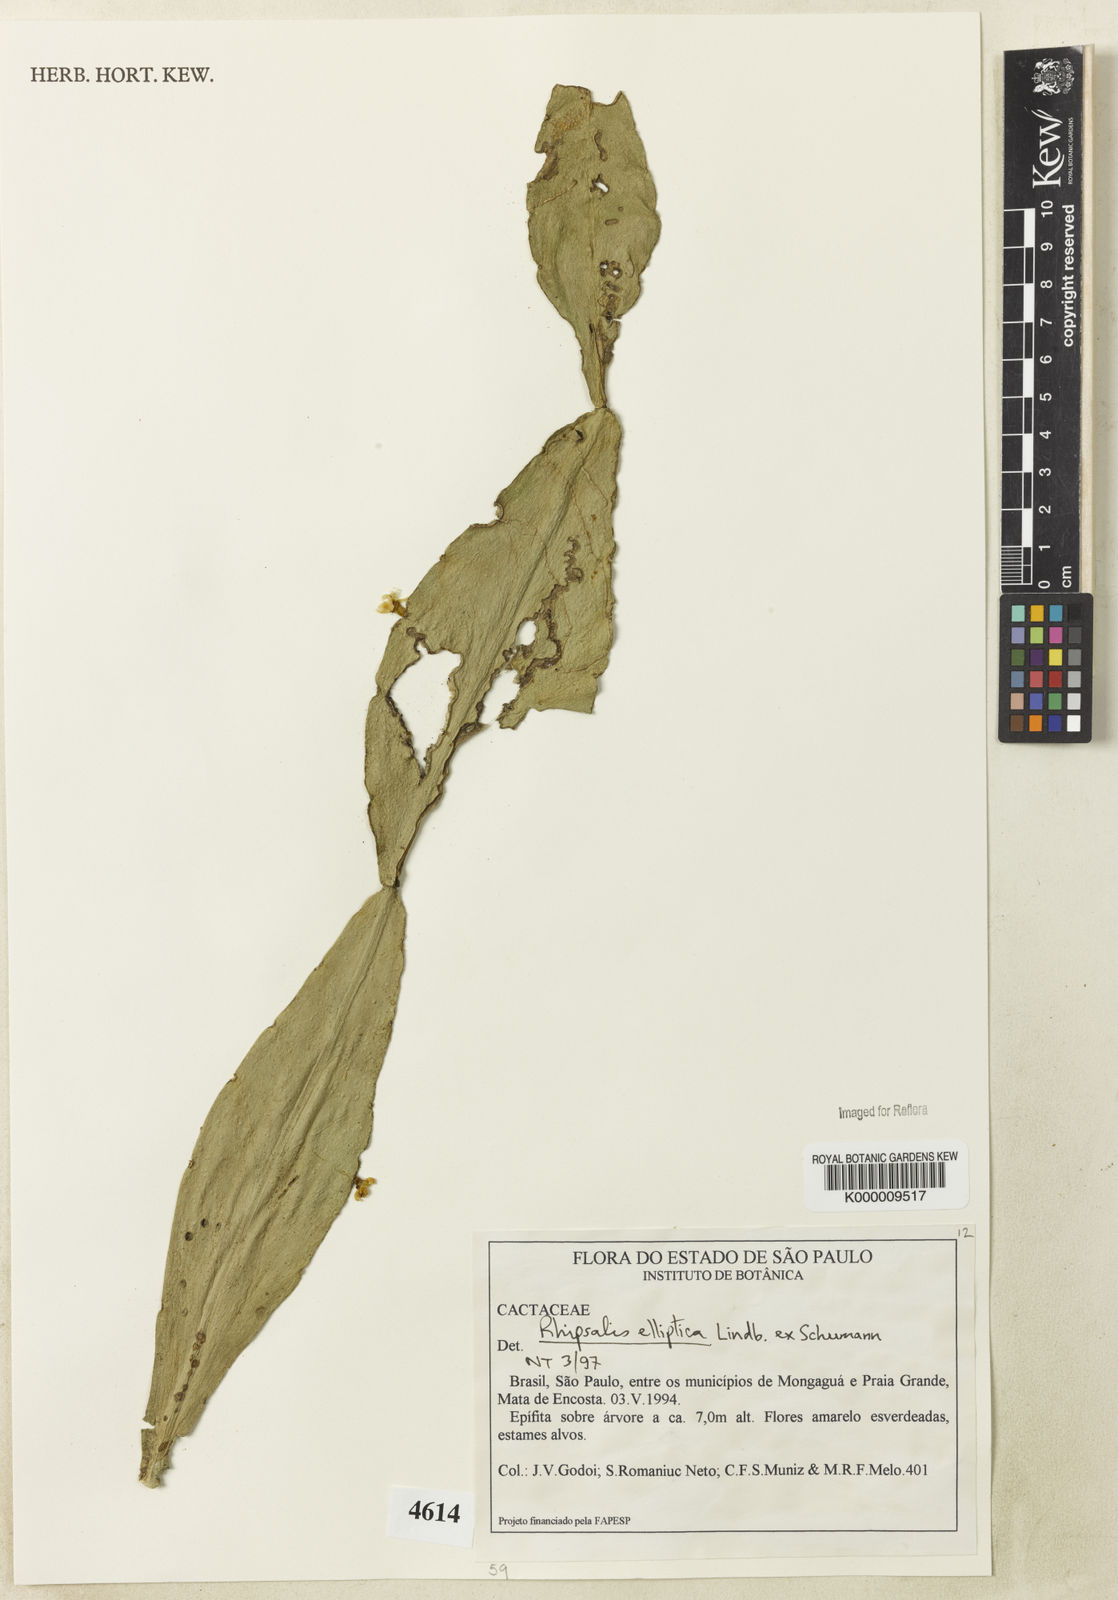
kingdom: Plantae
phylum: Tracheophyta
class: Magnoliopsida
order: Caryophyllales
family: Cactaceae
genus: Rhipsalis
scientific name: Rhipsalis elliptica
